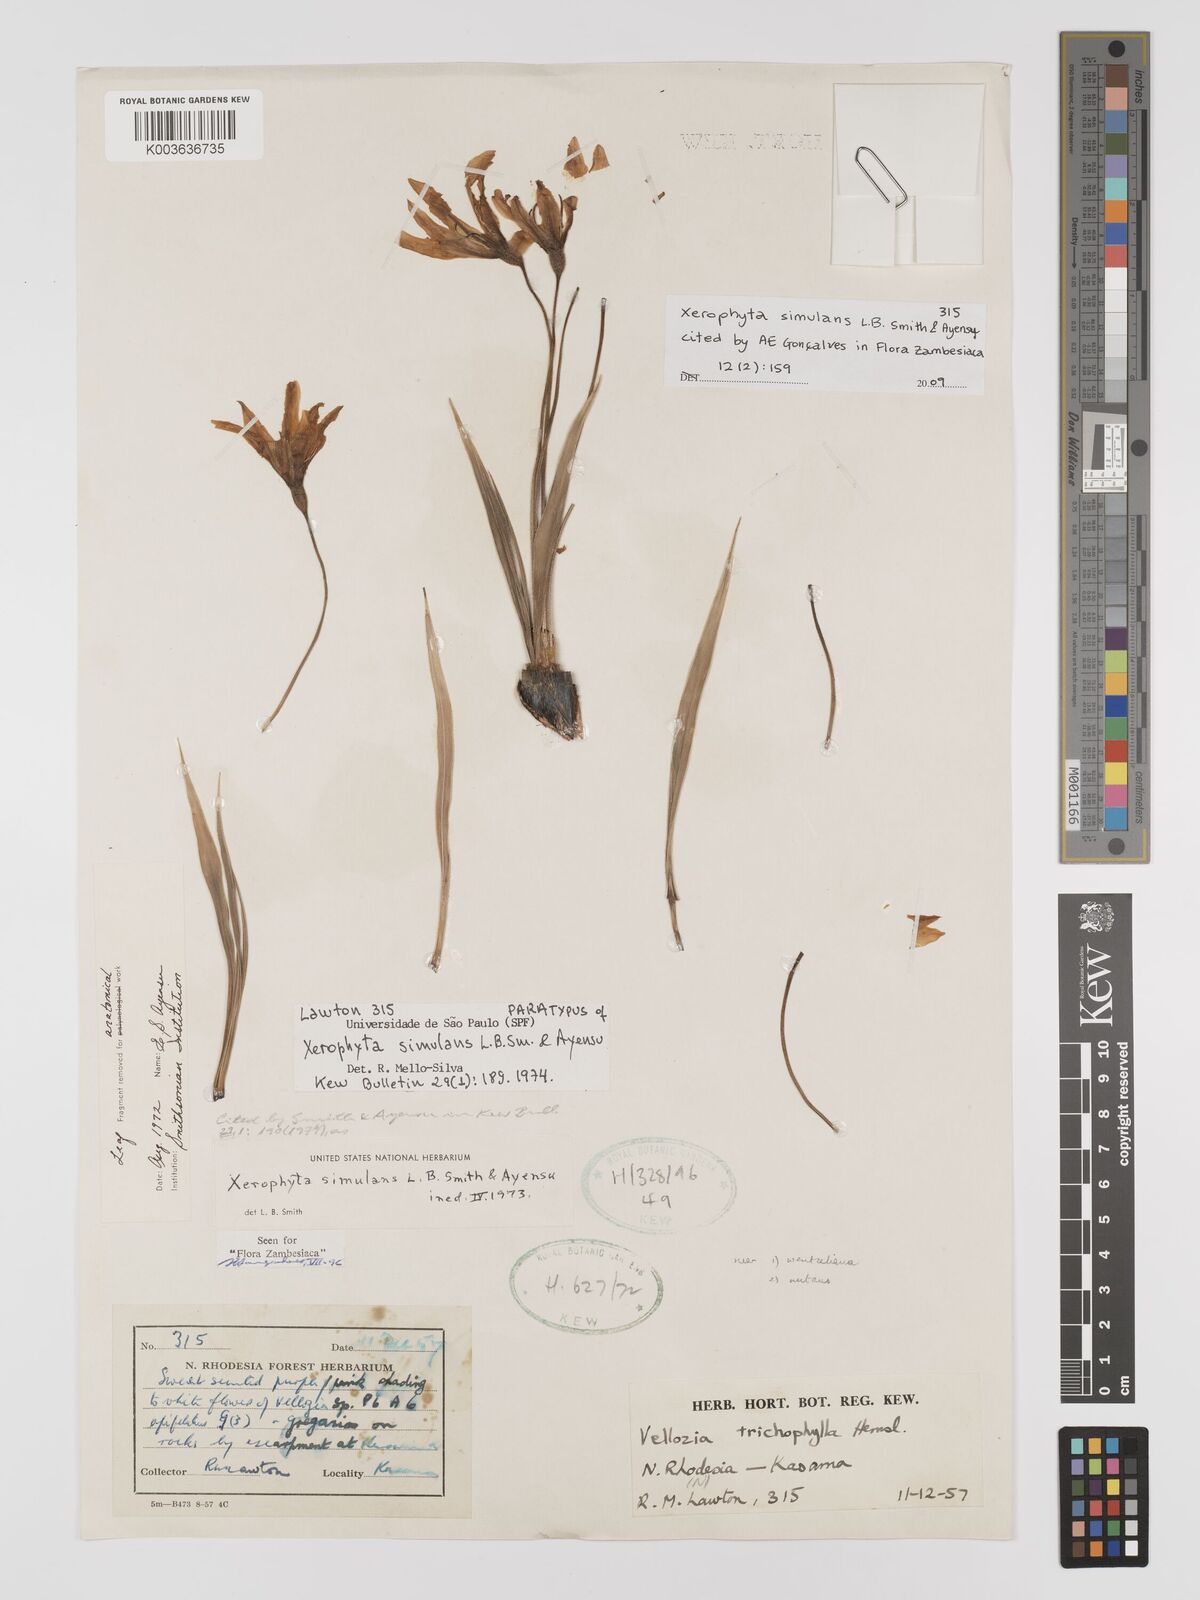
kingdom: Plantae
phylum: Tracheophyta
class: Liliopsida
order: Pandanales
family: Velloziaceae
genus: Xerophyta
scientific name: Xerophyta simulans
